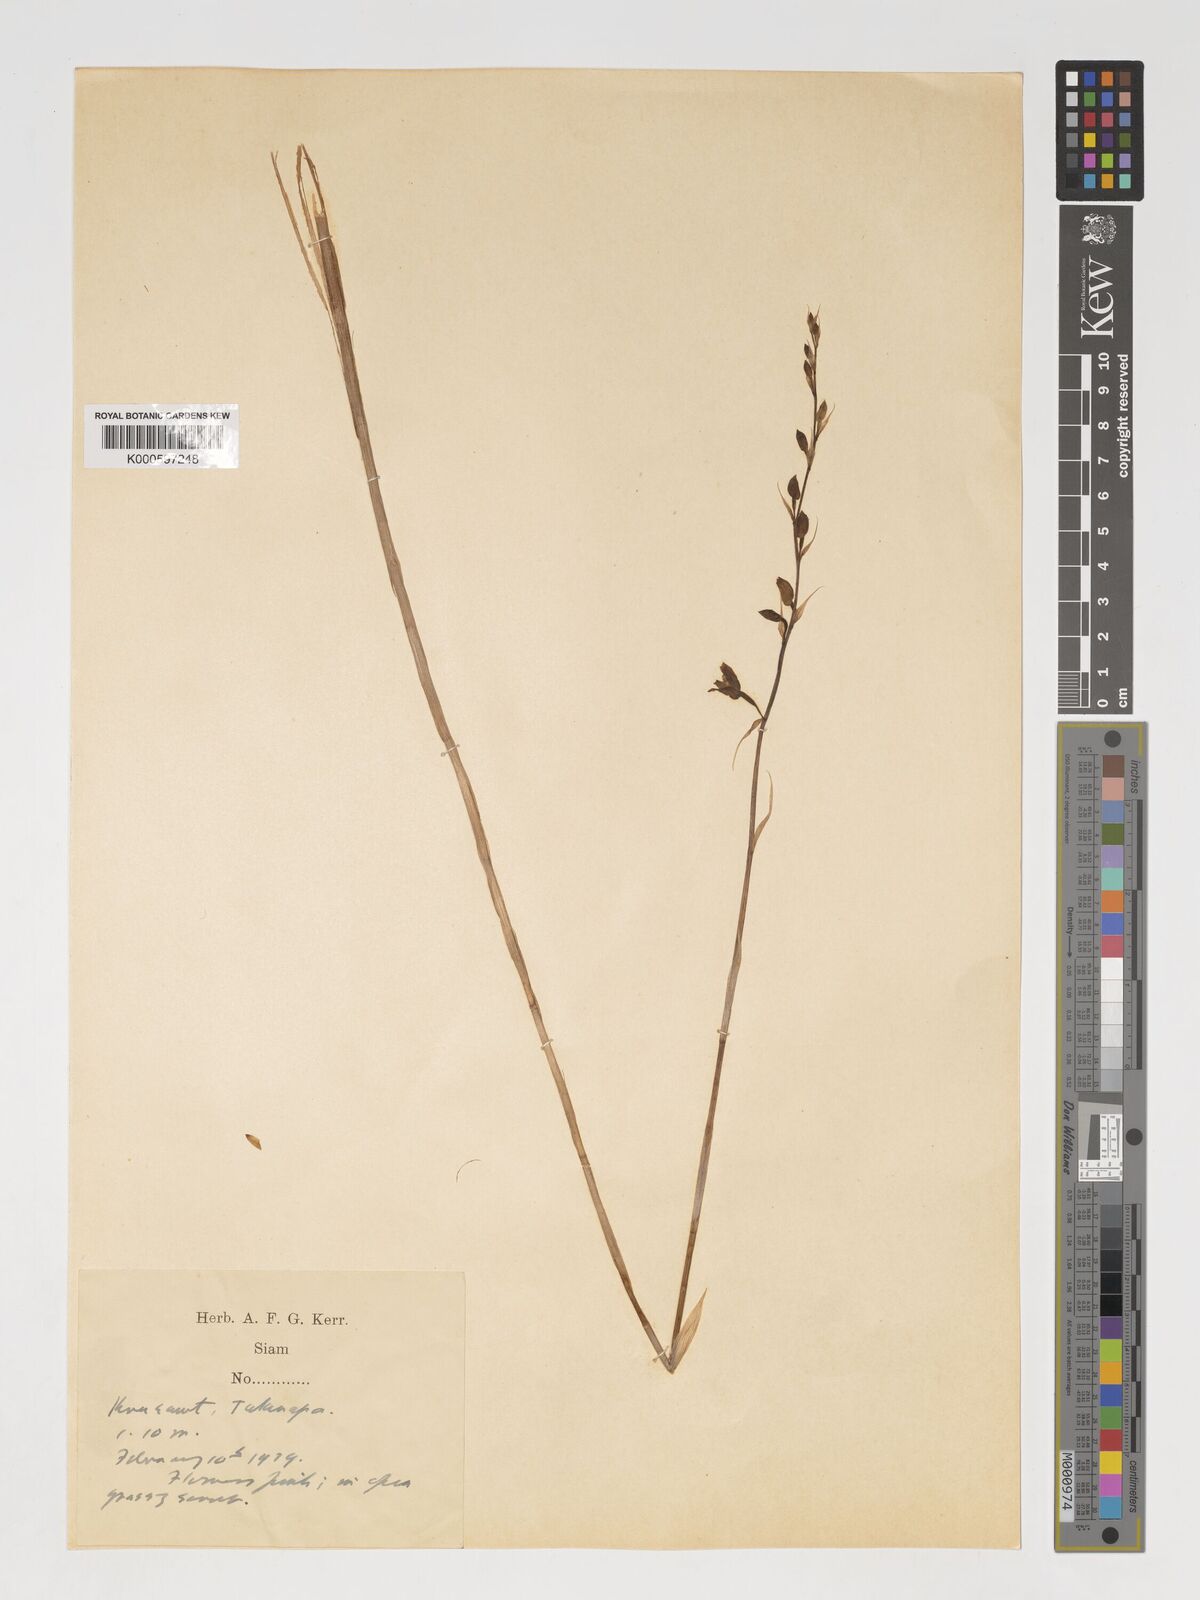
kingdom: Plantae
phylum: Tracheophyta
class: Liliopsida
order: Asparagales
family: Orchidaceae
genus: Pachystoma
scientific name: Pachystoma pubescens
